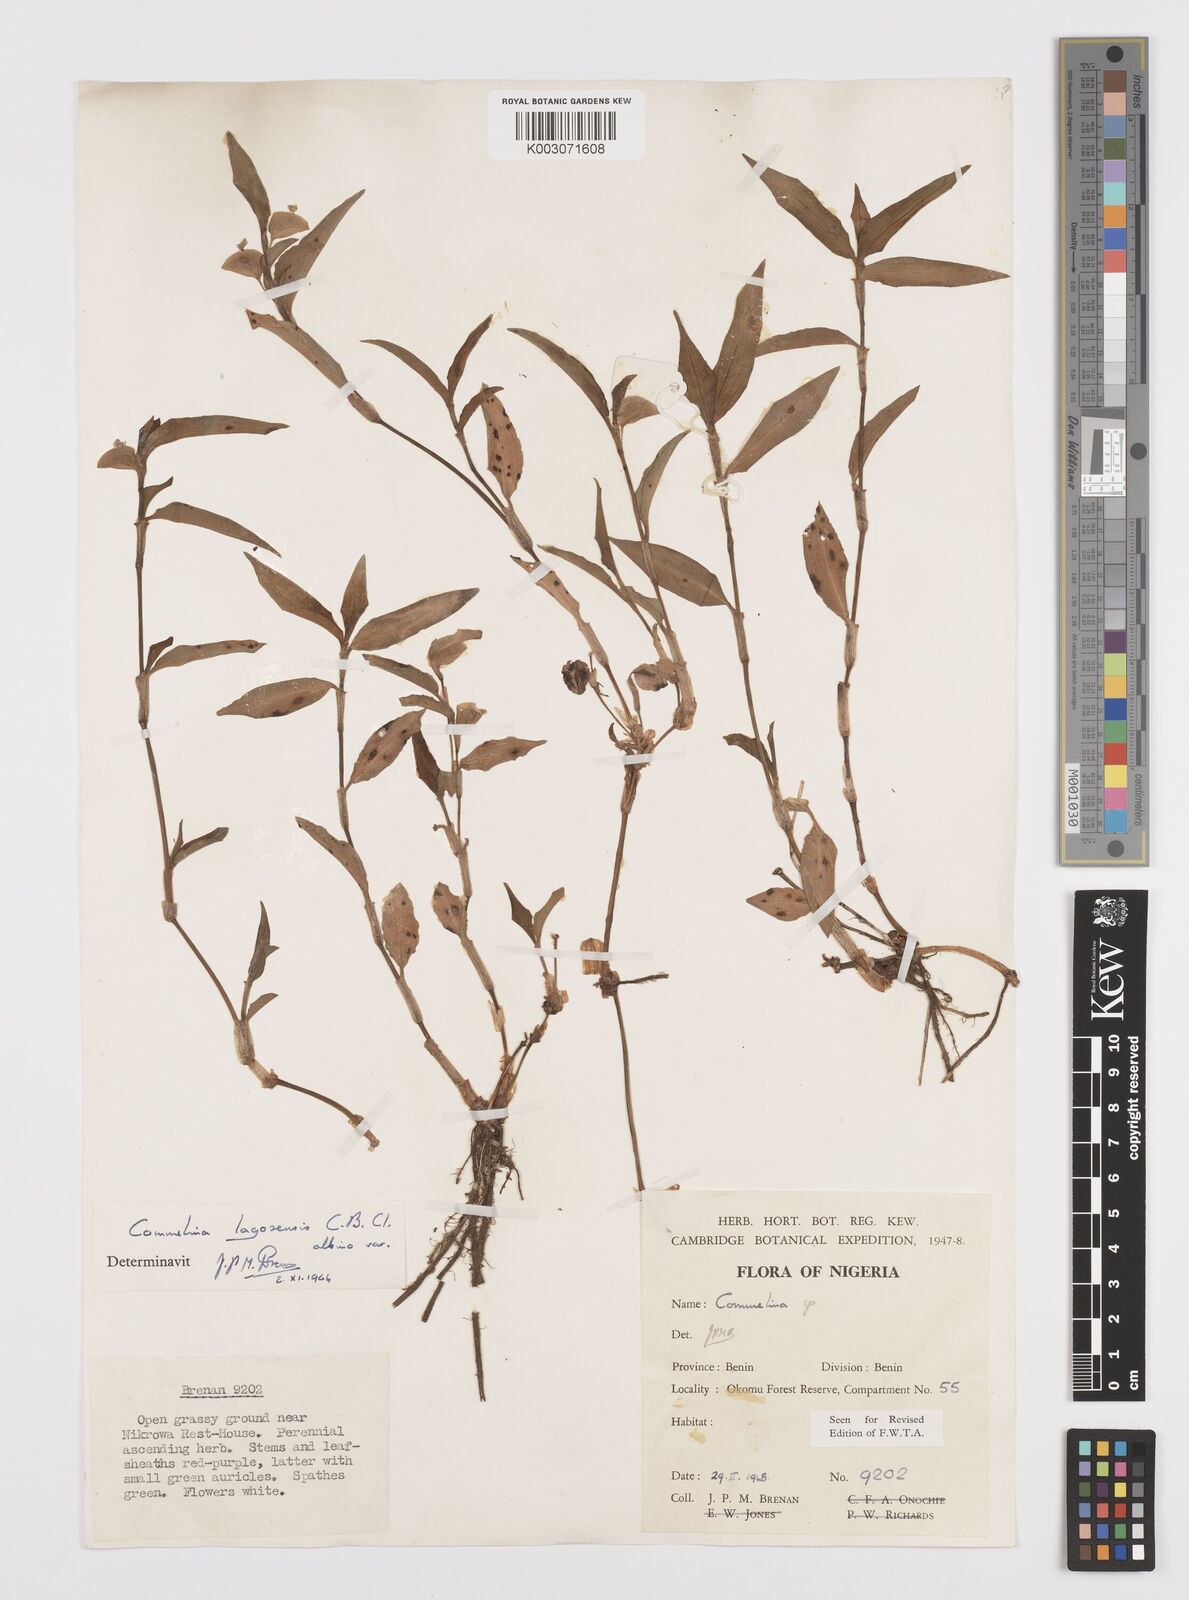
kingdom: Plantae
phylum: Tracheophyta
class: Liliopsida
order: Commelinales
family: Commelinaceae
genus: Commelina
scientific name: Commelina bracteosa
